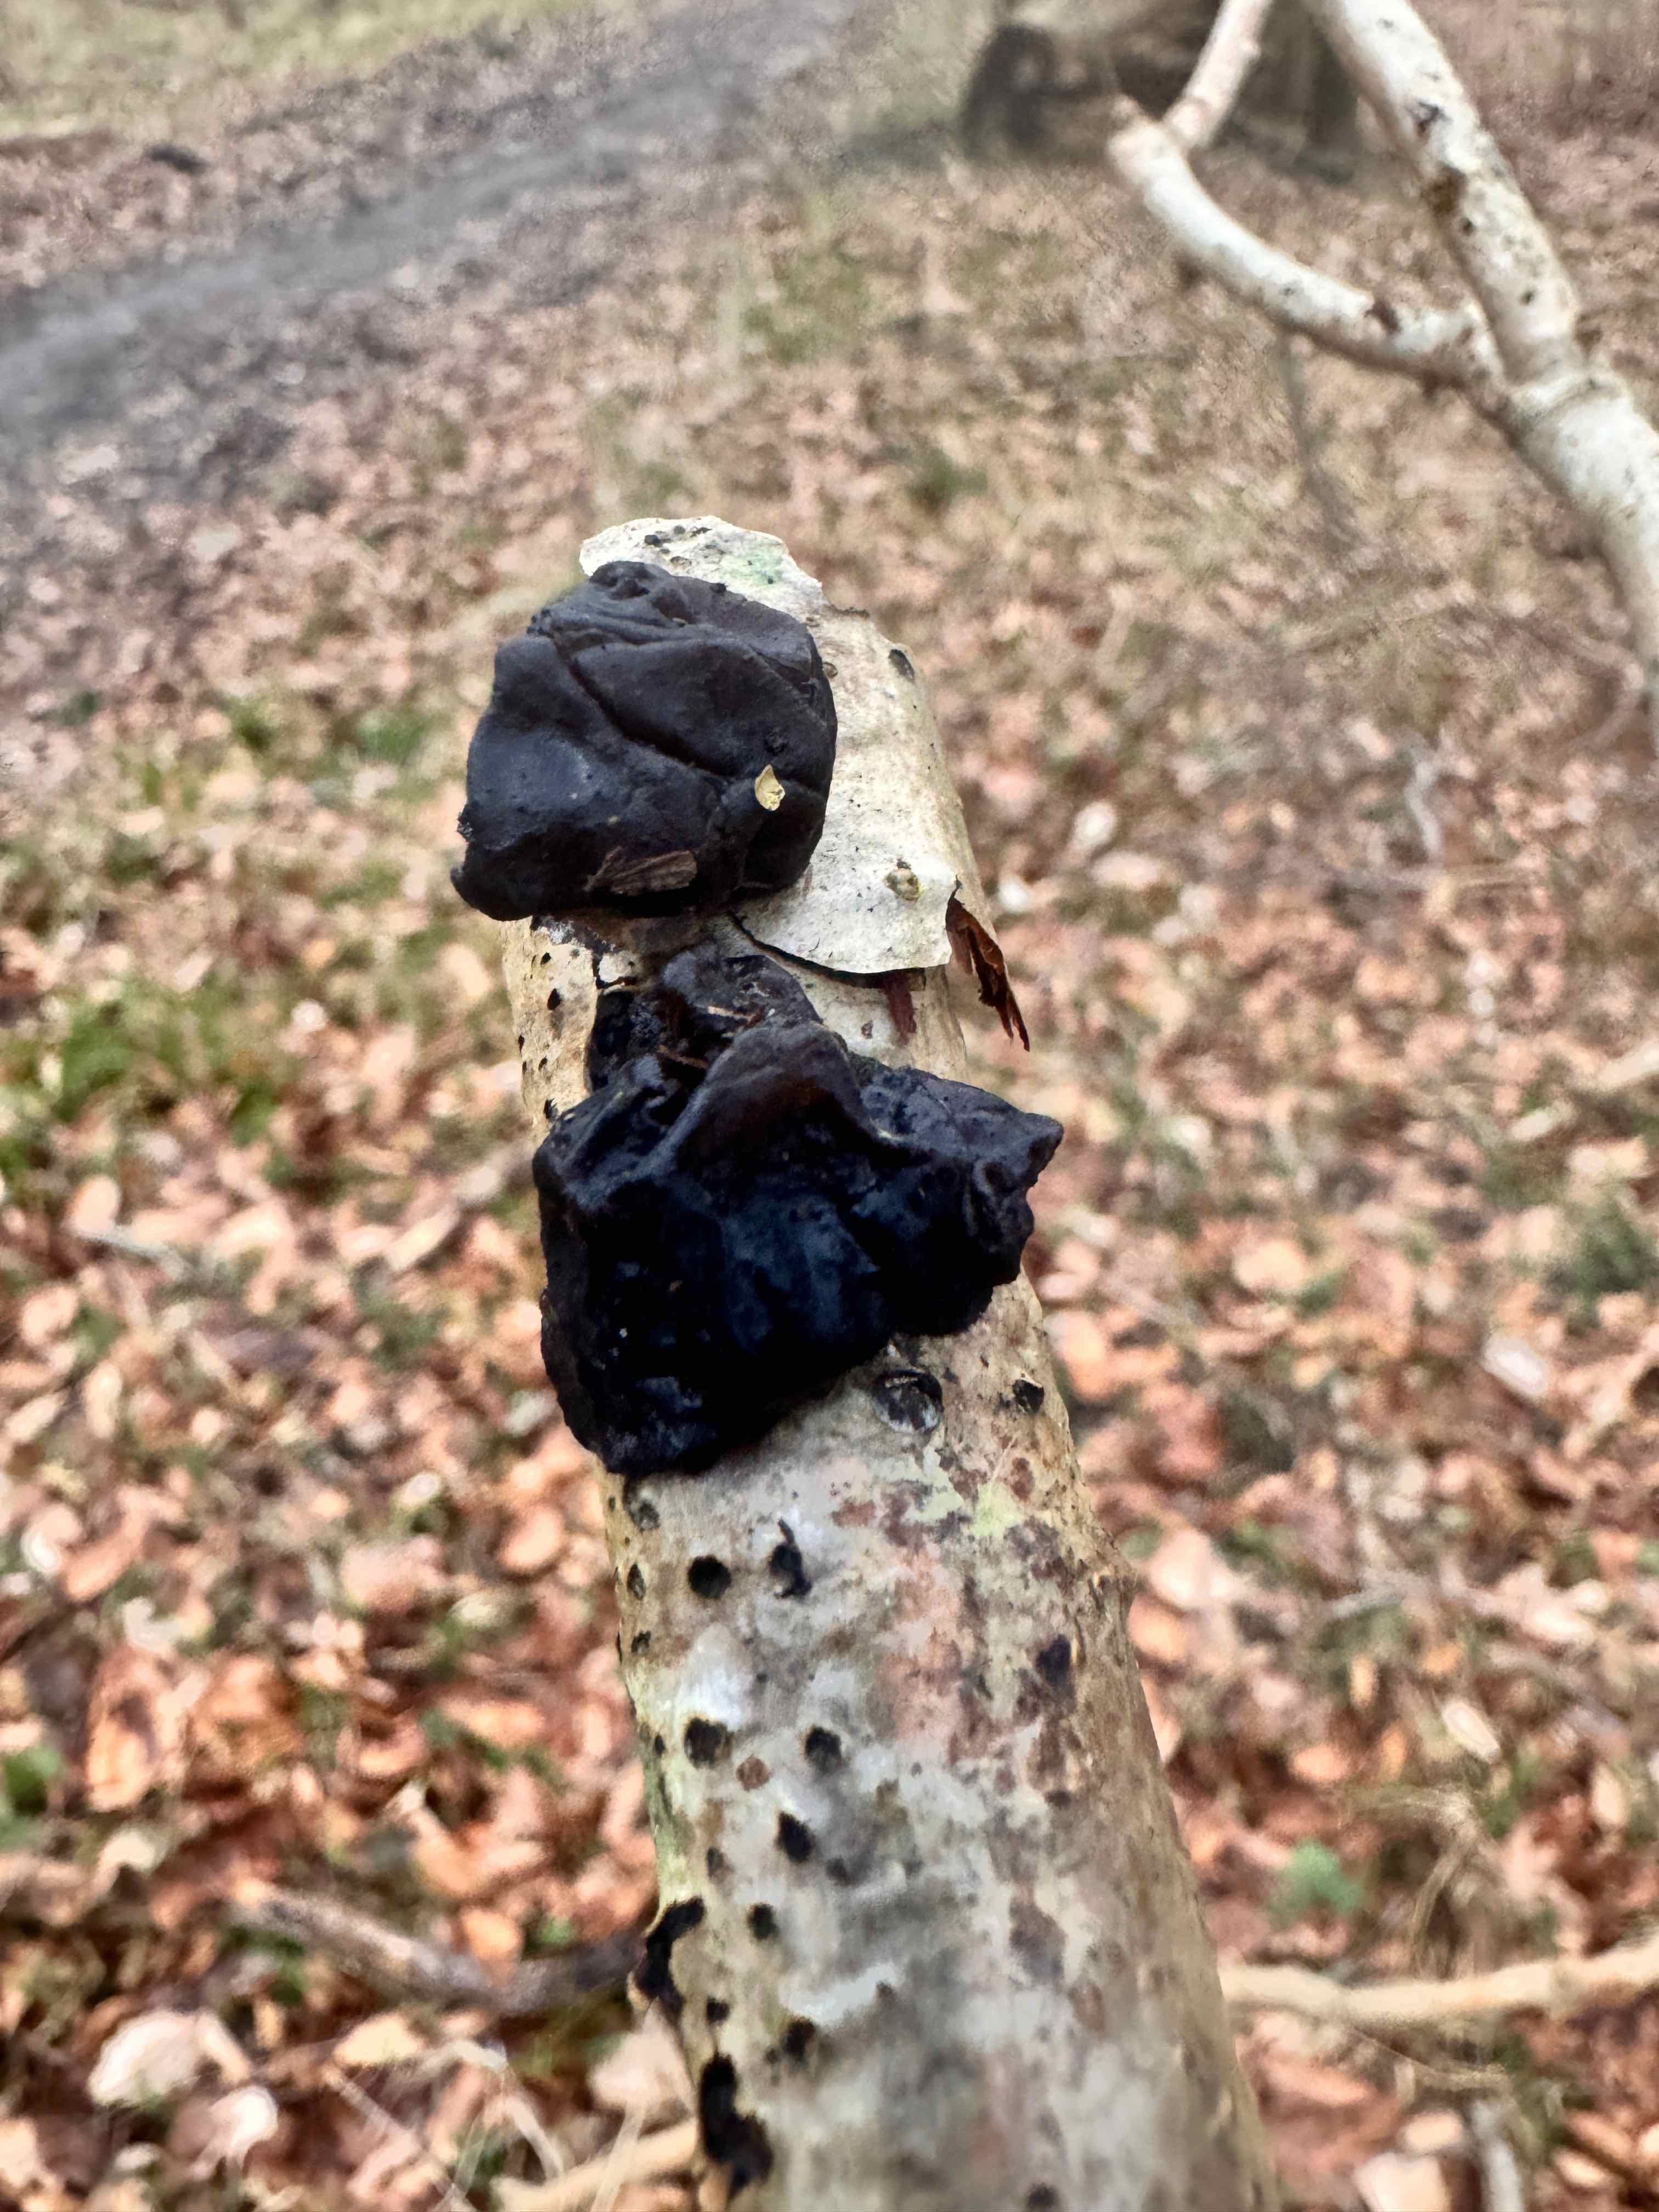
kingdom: Fungi
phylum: Basidiomycota
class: Agaricomycetes
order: Auriculariales
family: Auriculariaceae
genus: Exidia
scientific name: Exidia glandulosa
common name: ege-bævretop
